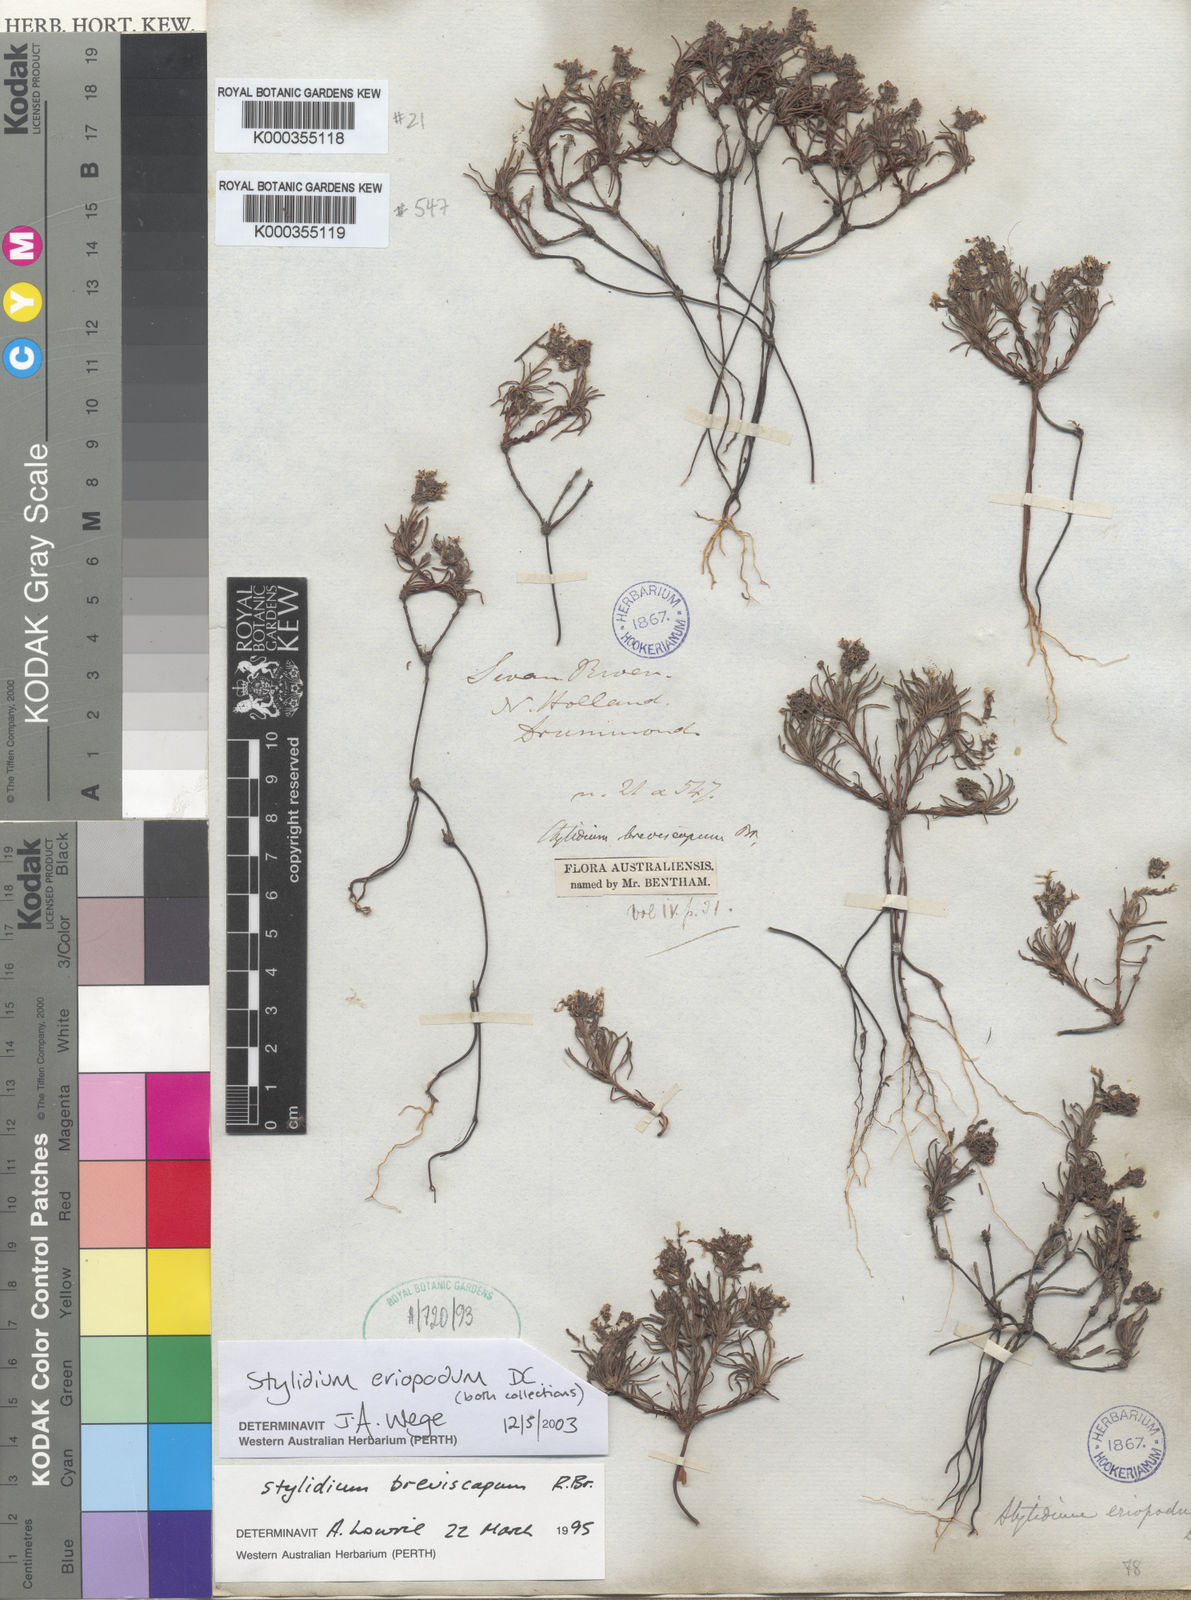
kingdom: Plantae
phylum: Tracheophyta
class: Magnoliopsida
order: Asterales
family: Stylidiaceae
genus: Stylidium
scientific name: Stylidium breviscapum
